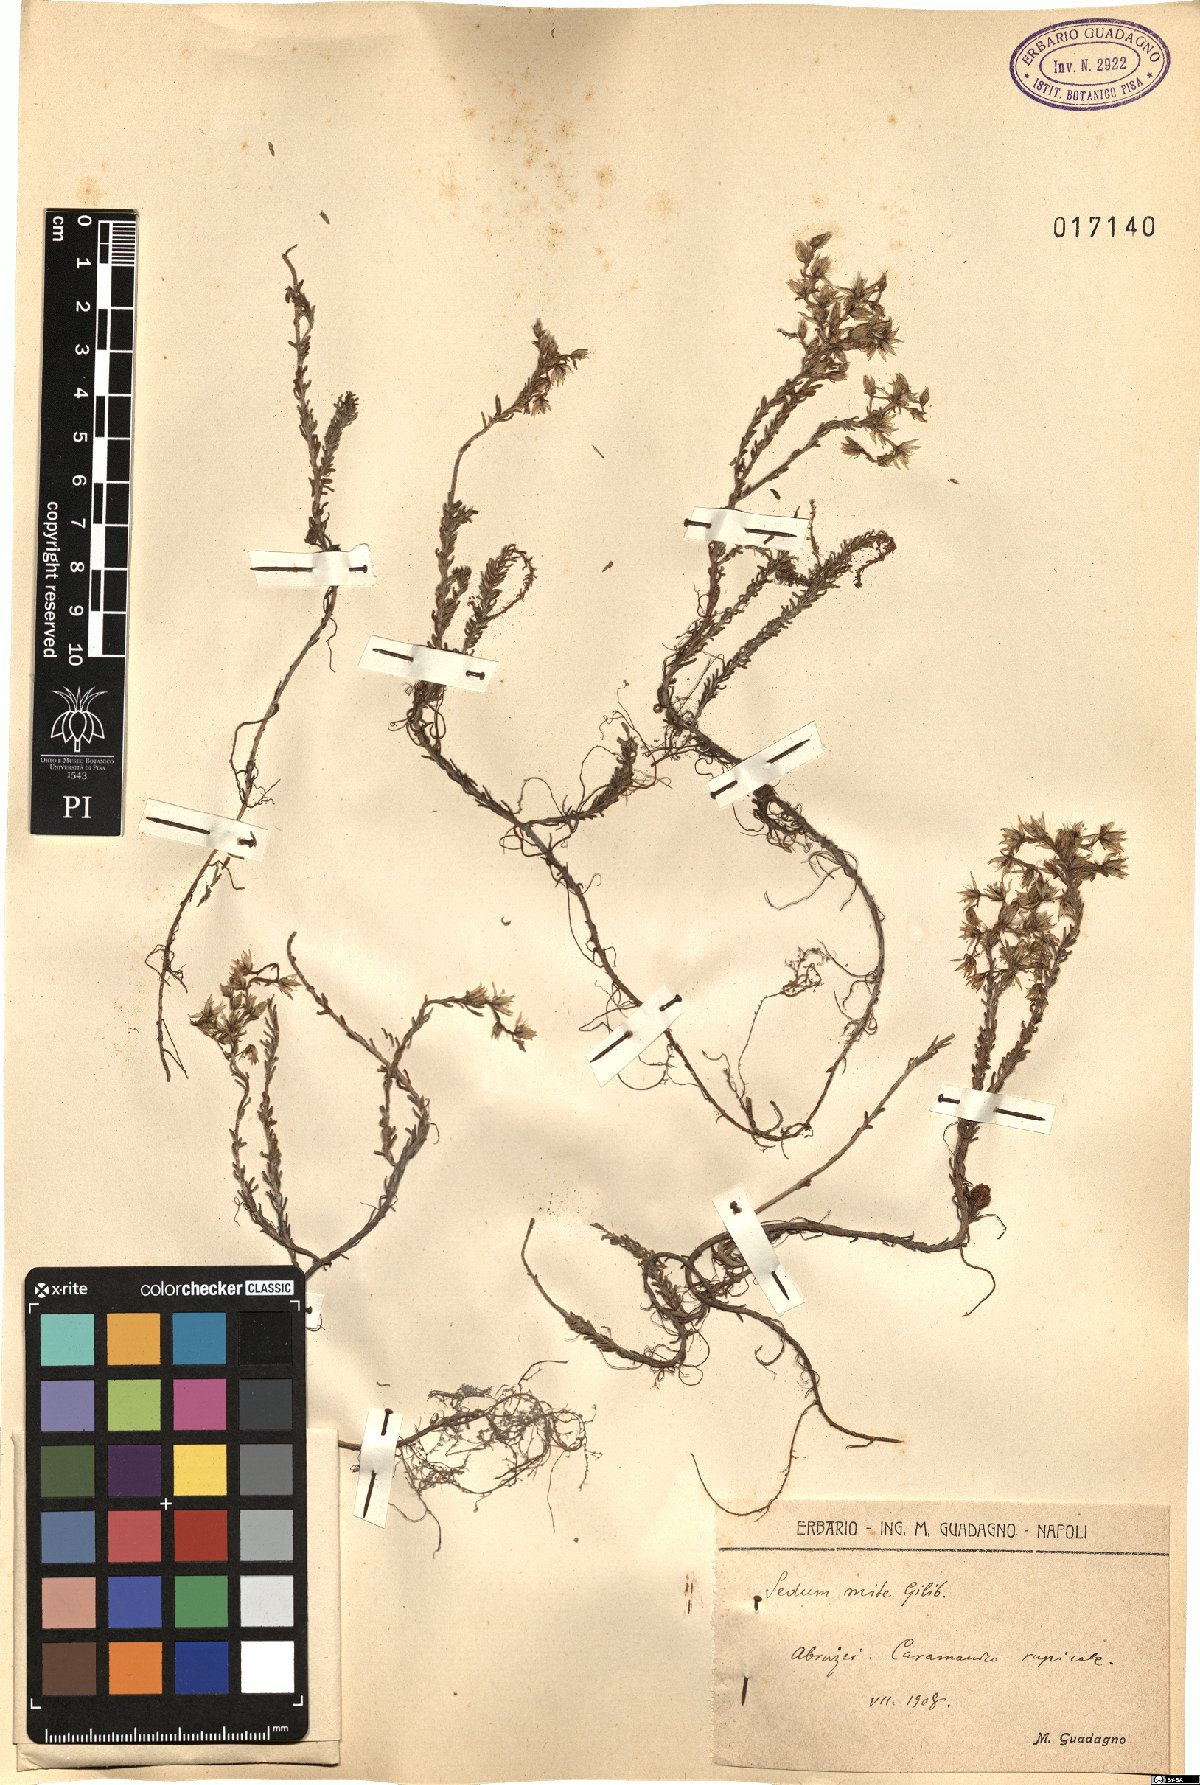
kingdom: Plantae
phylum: Tracheophyta
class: Magnoliopsida
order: Saxifragales
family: Crassulaceae
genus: Sedum
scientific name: Sedum sexangulare
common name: Tasteless stonecrop
